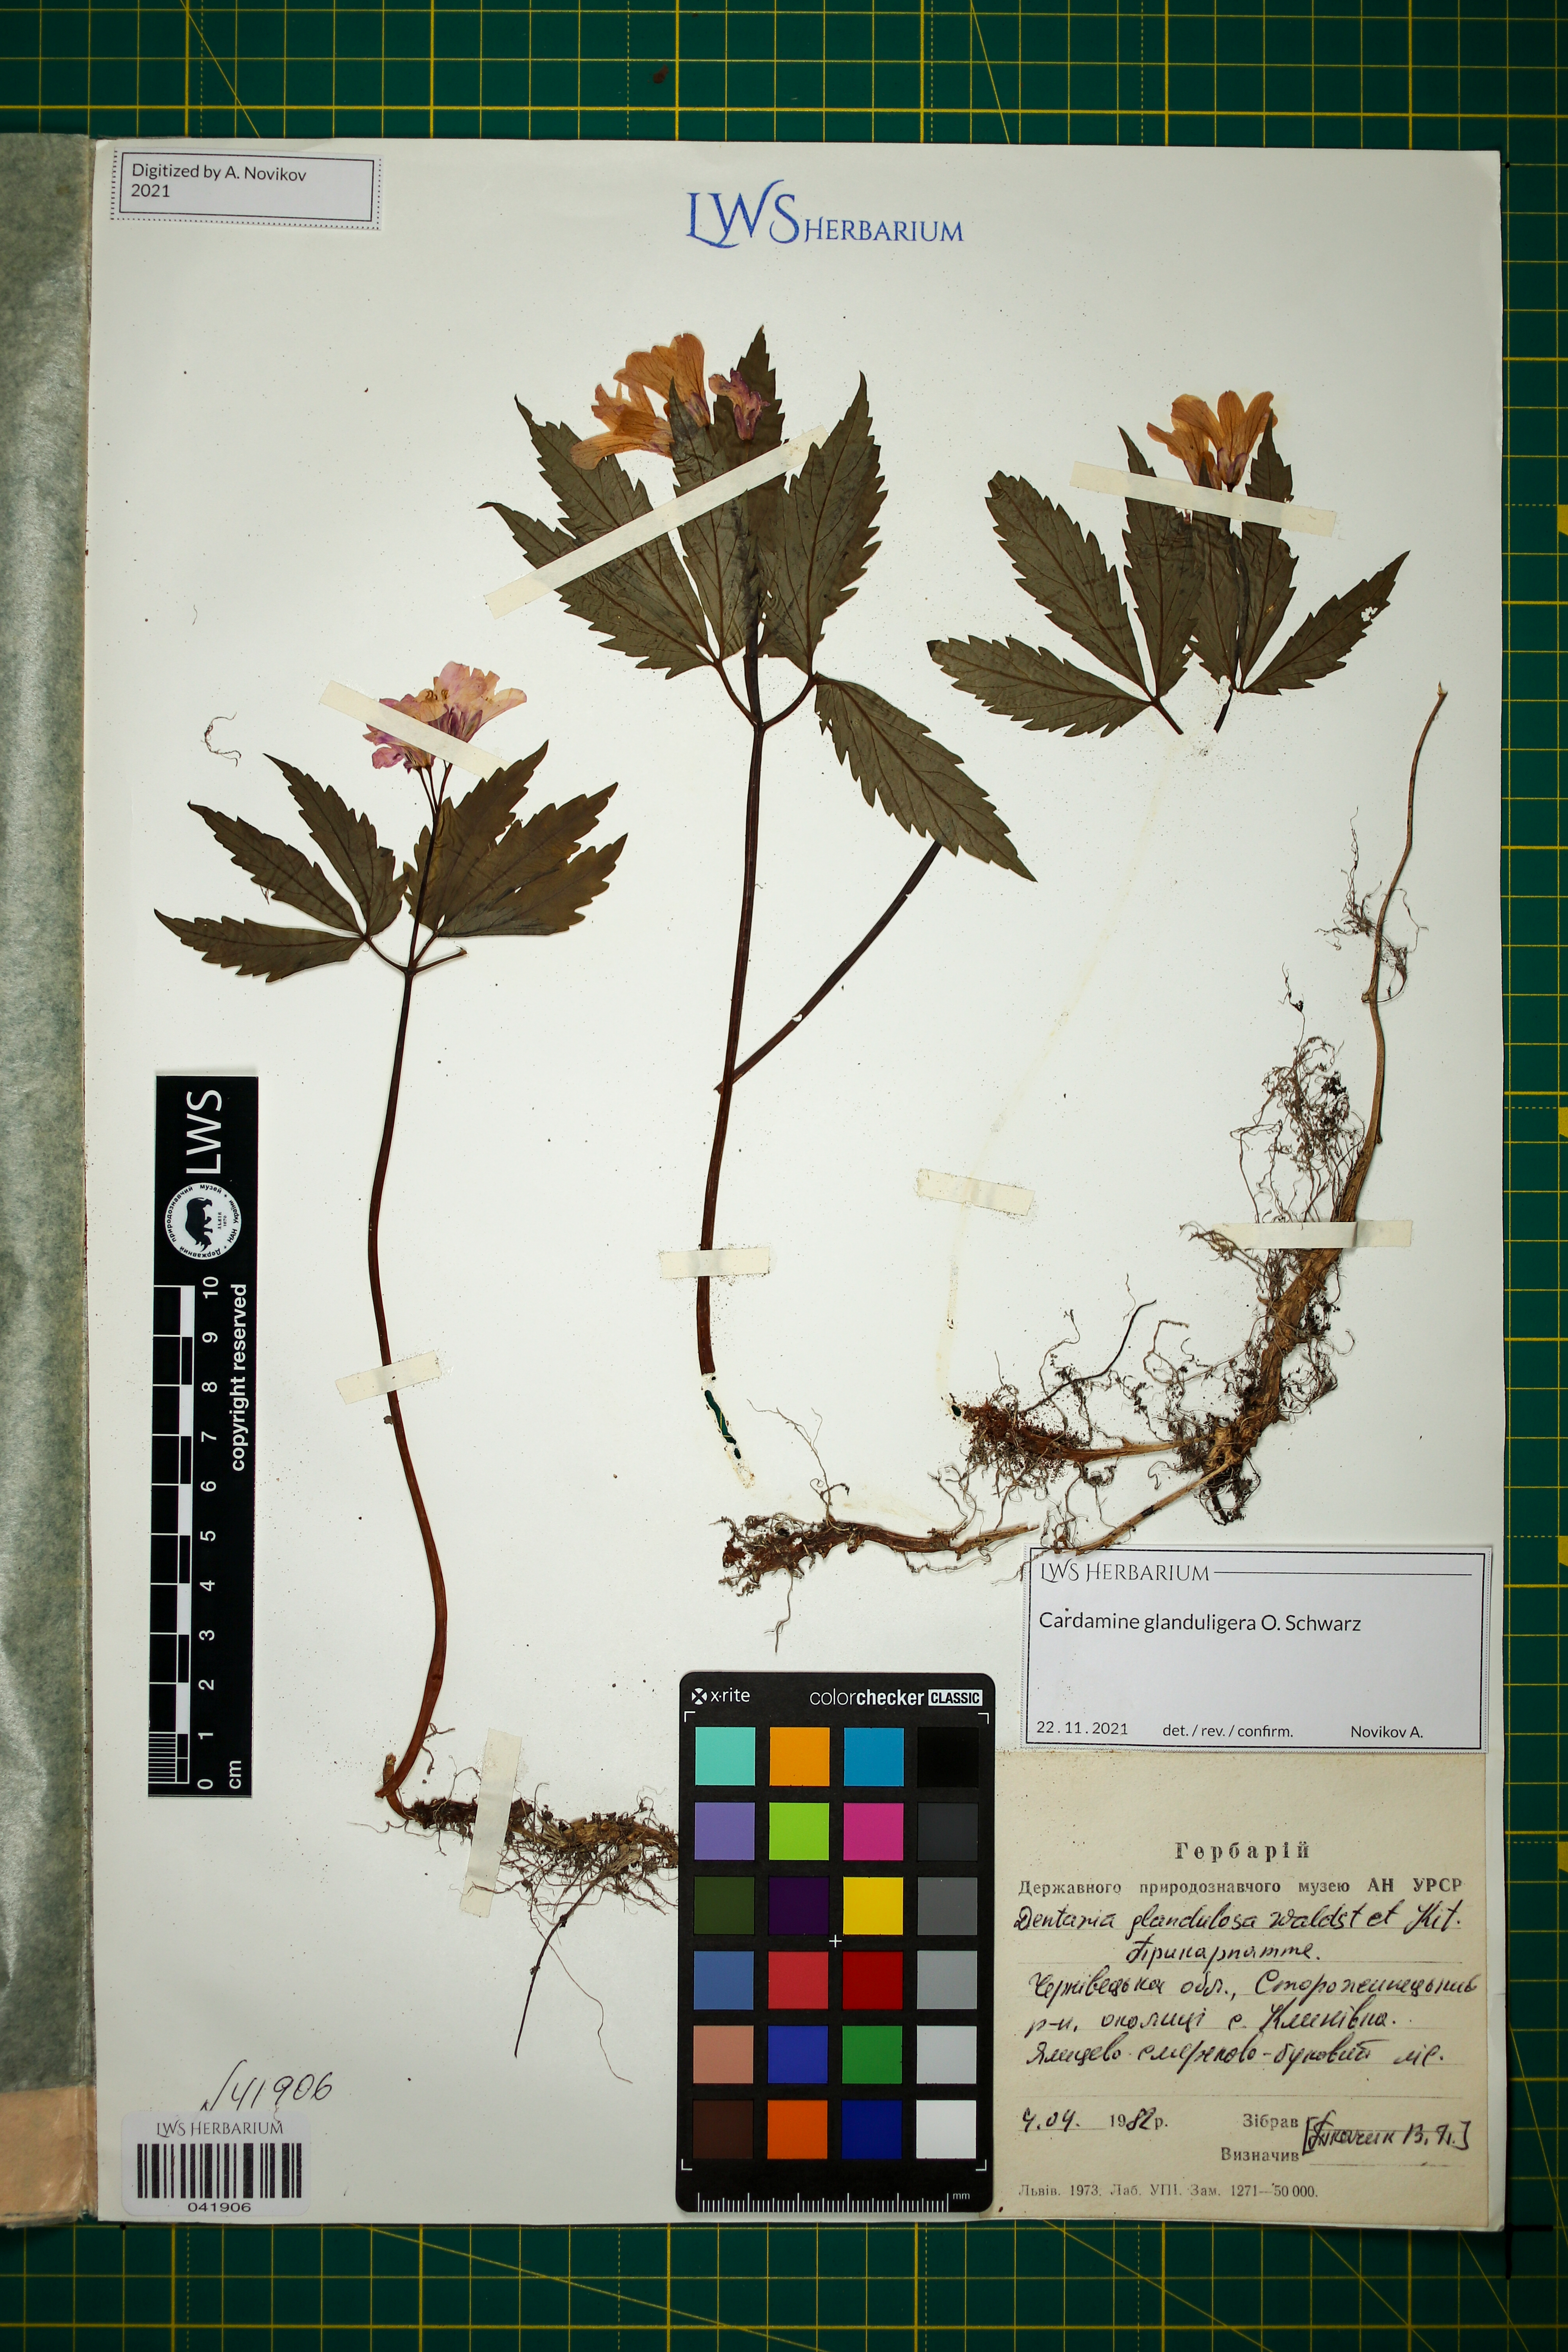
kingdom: Plantae
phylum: Tracheophyta
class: Magnoliopsida
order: Brassicales
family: Brassicaceae
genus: Cardamine
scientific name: Cardamine glanduligera
